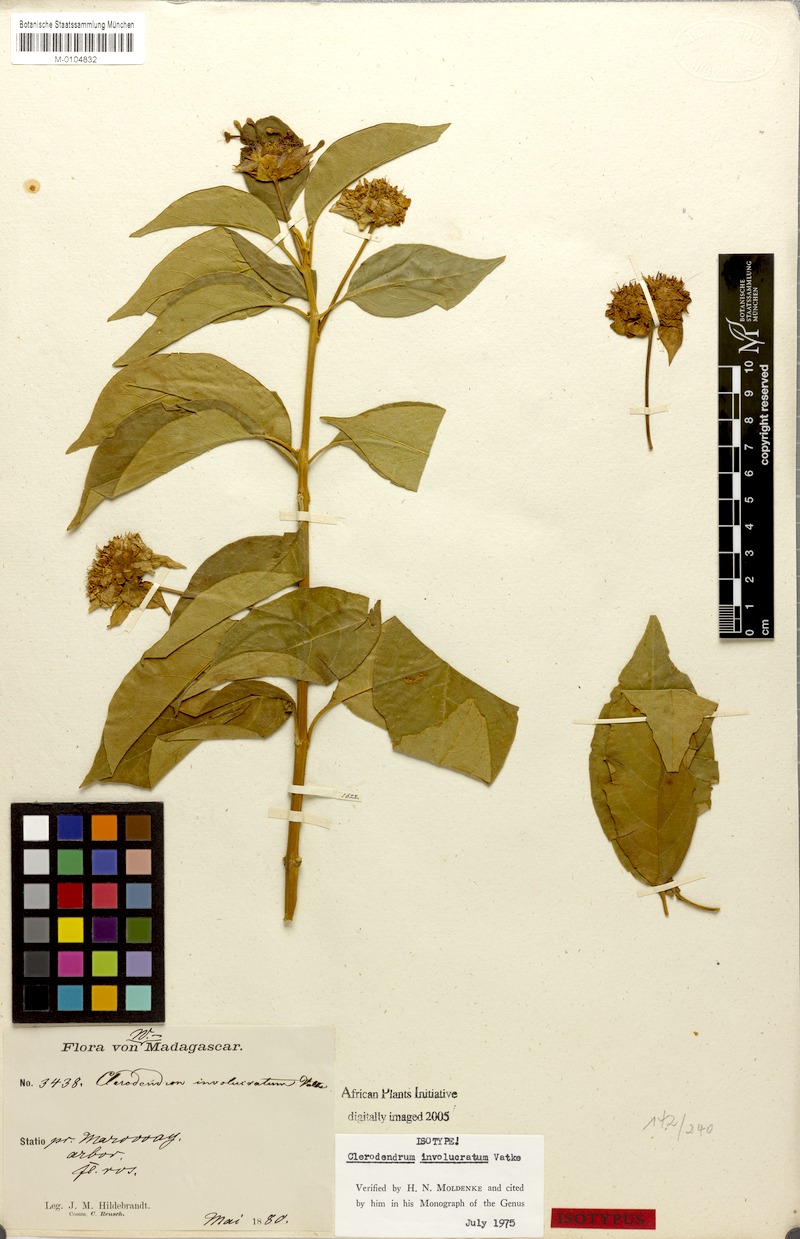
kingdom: Plantae
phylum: Tracheophyta
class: Magnoliopsida
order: Lamiales
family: Lamiaceae
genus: Clerodendrum
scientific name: Clerodendrum involucratum
